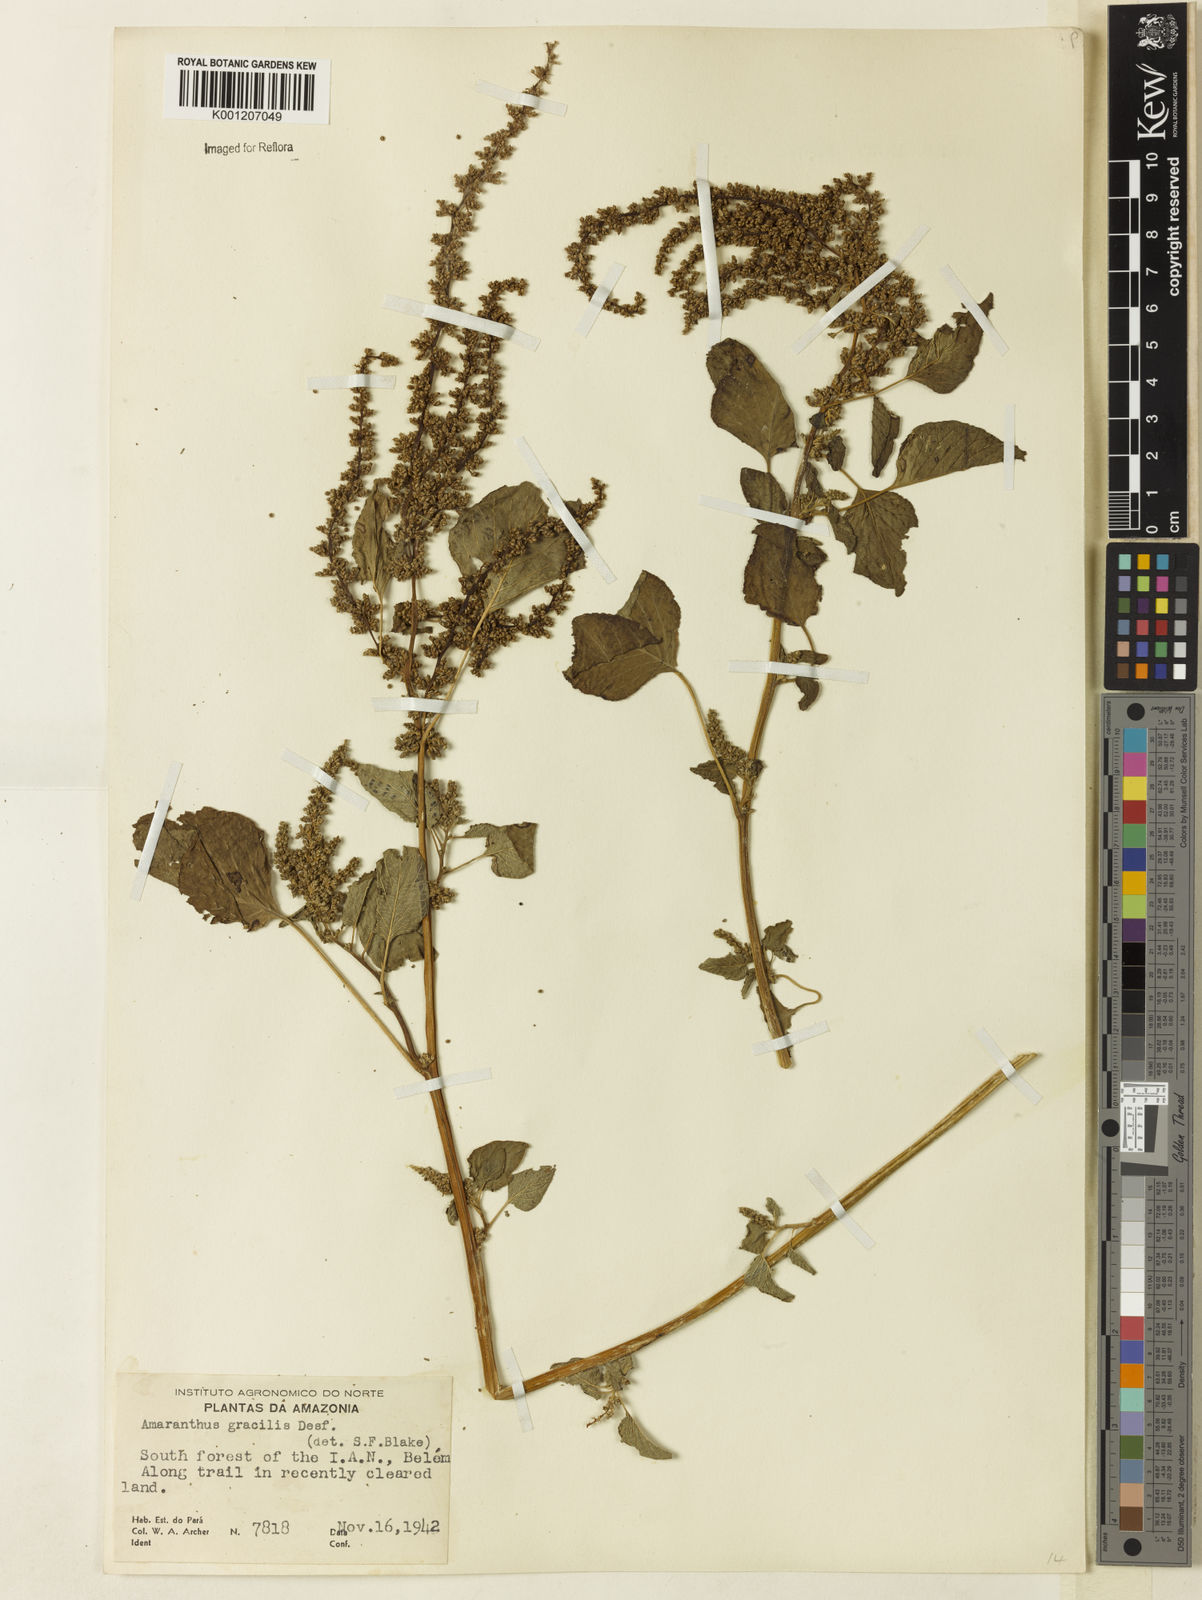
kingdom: Plantae
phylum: Tracheophyta
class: Magnoliopsida
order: Caryophyllales
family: Amaranthaceae
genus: Amaranthus
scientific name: Amaranthus
